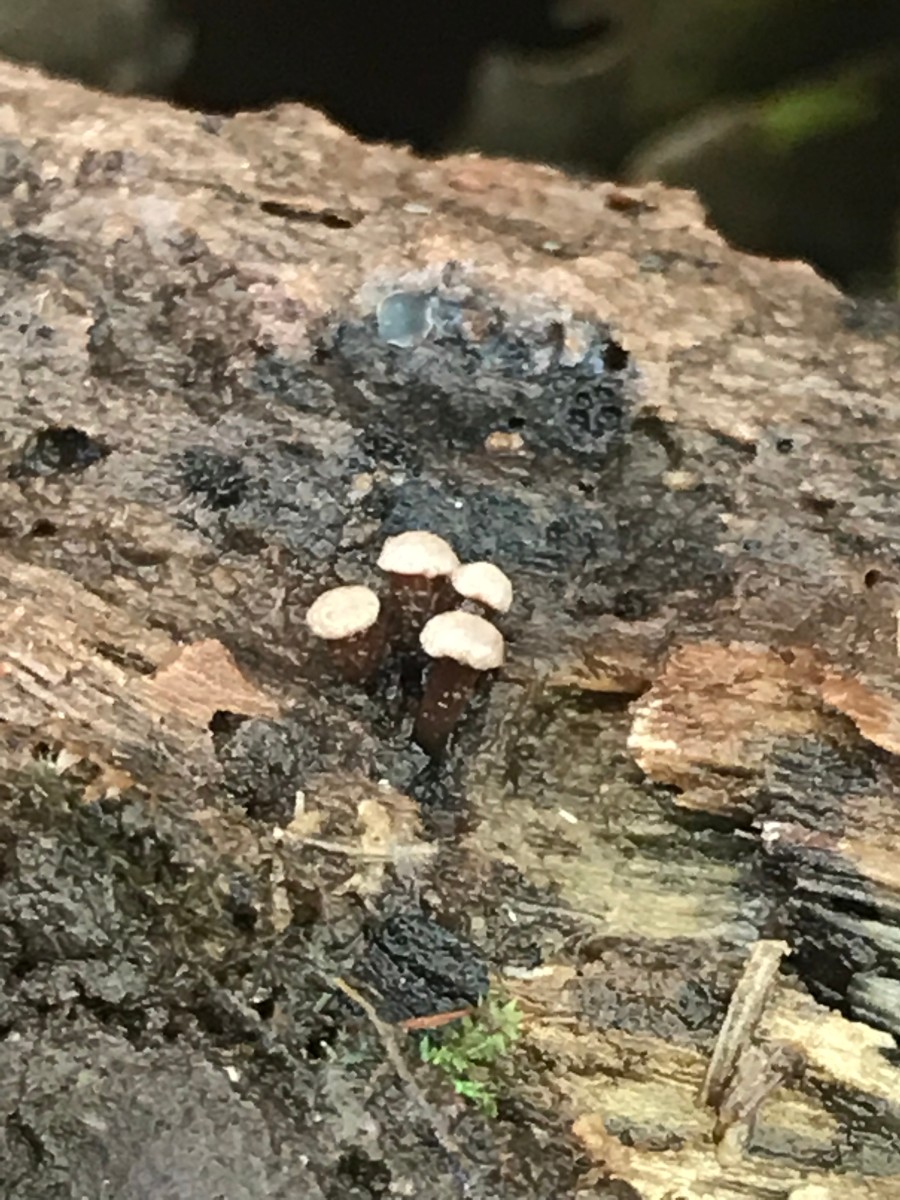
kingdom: Fungi
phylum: Ascomycota
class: Leotiomycetes
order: Helotiales
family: Gelatinodiscaceae
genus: Ascocoryne
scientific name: Ascocoryne albida
